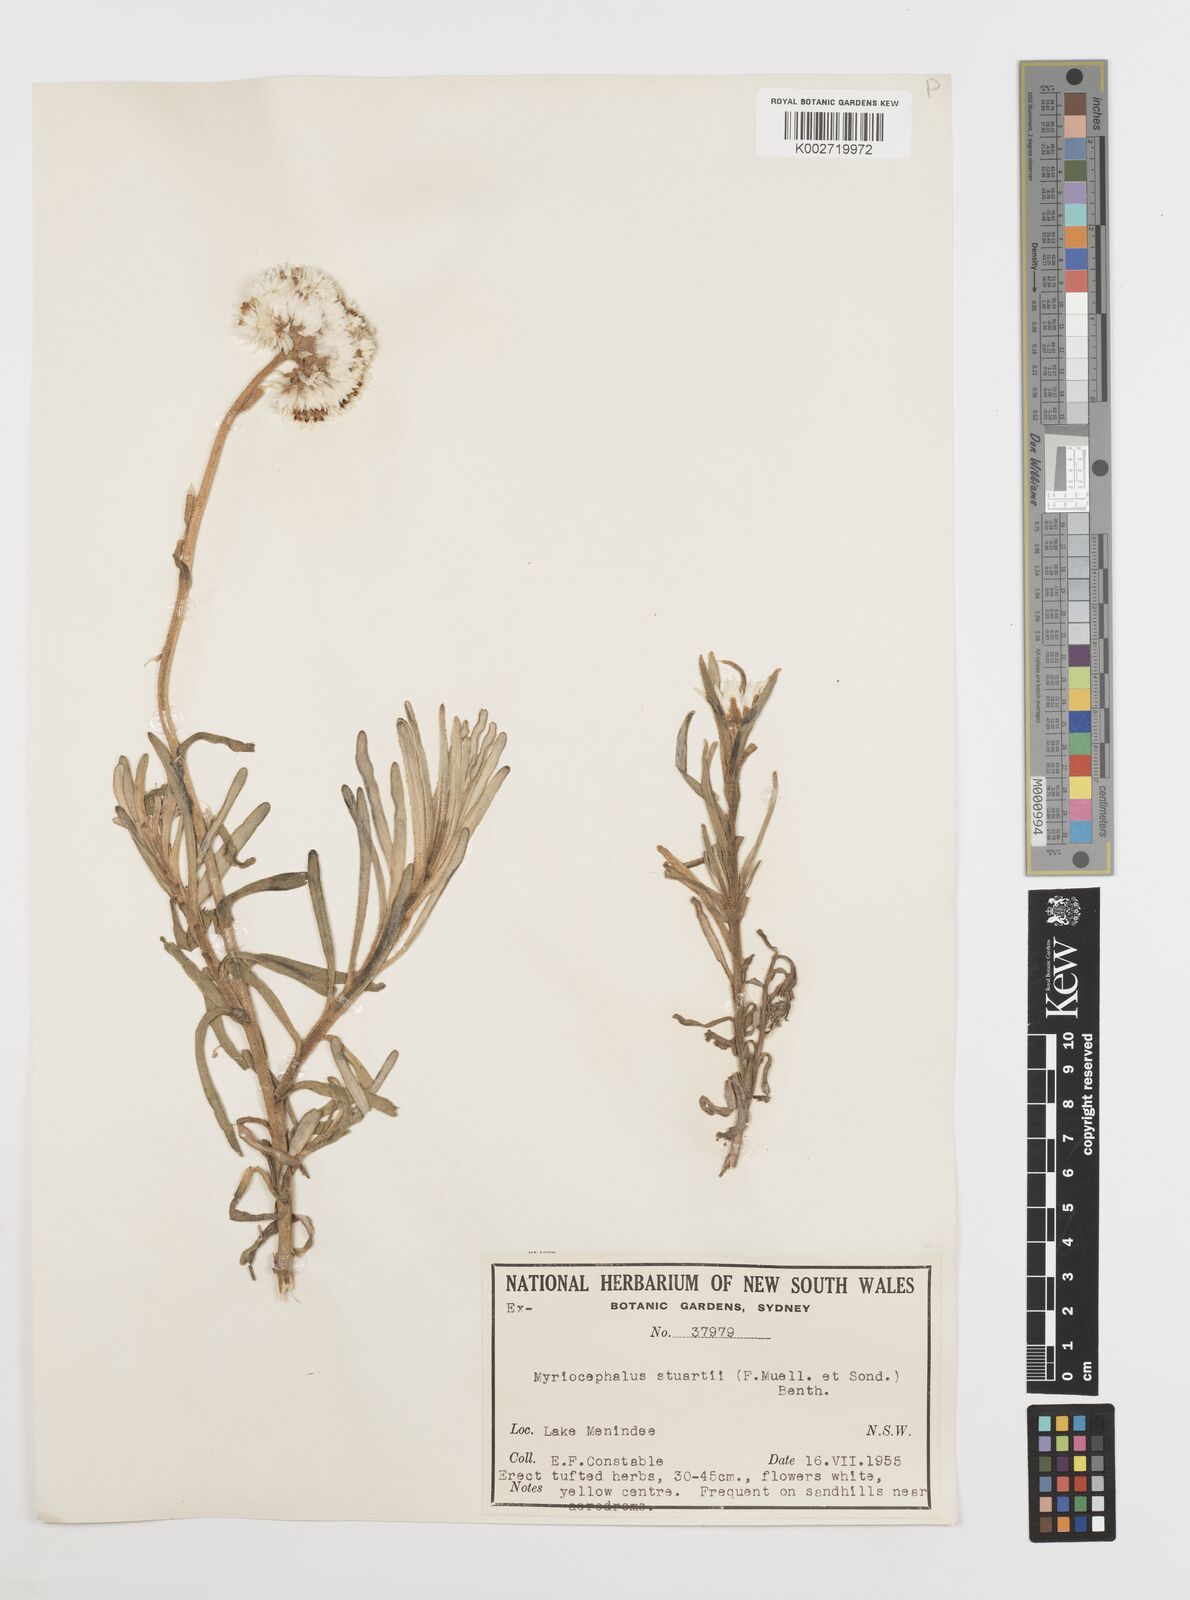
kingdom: Plantae
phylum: Tracheophyta
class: Magnoliopsida
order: Asterales
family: Asteraceae
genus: Polycalymma
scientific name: Polycalymma stuartii
